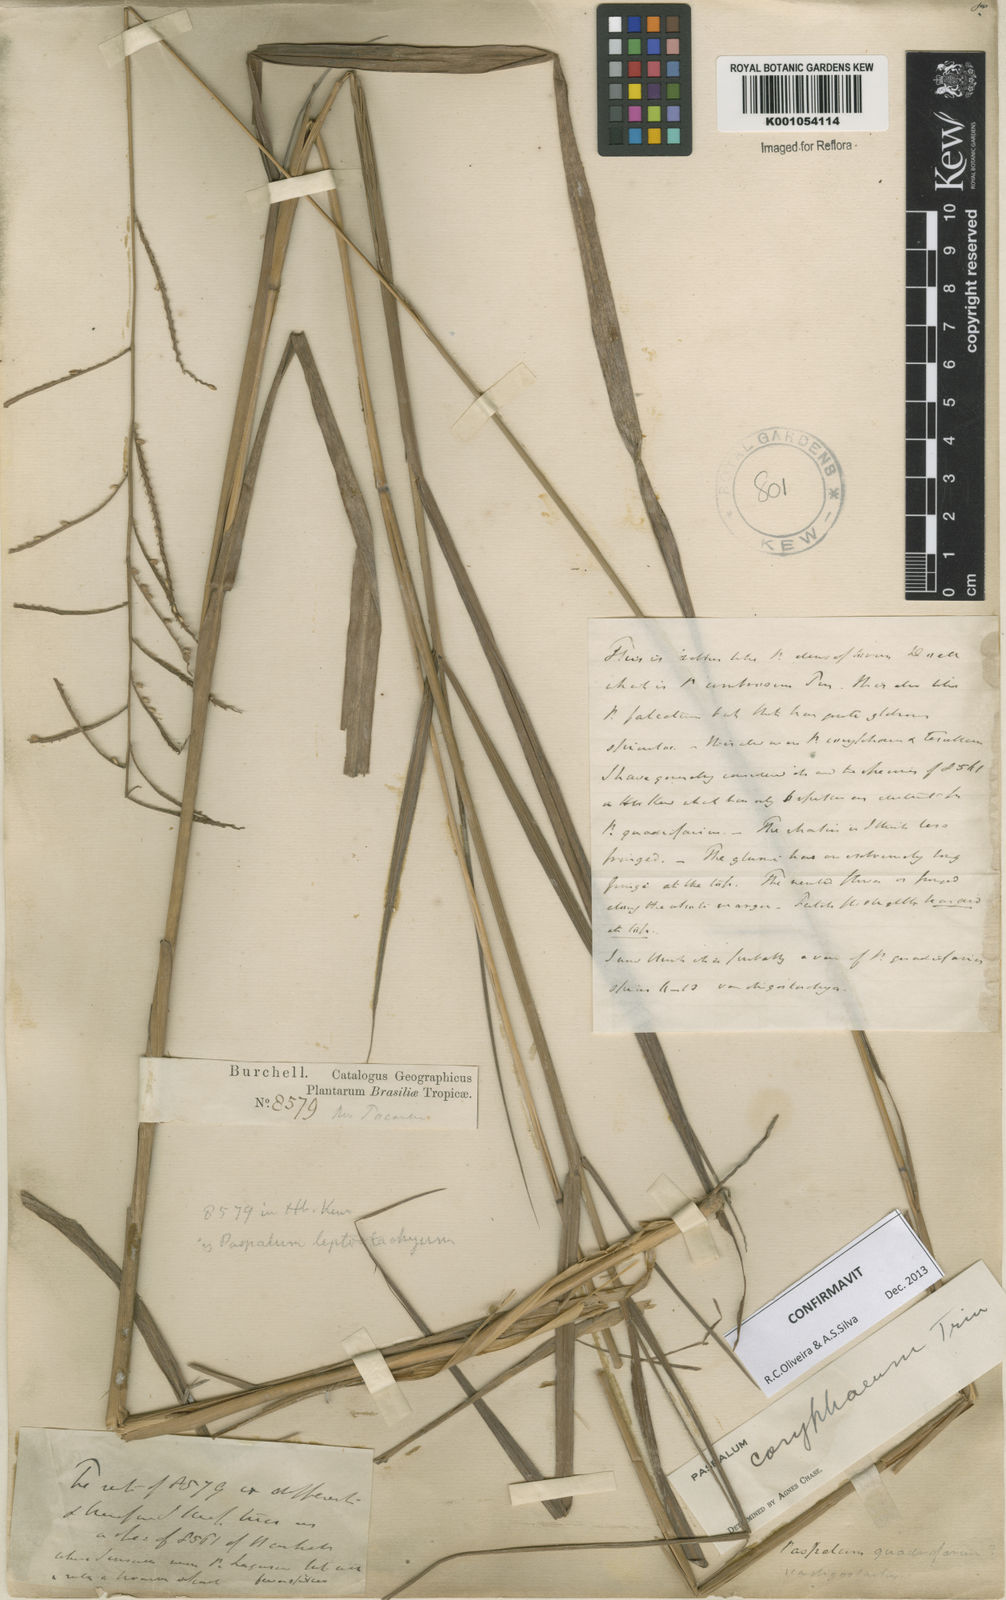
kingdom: Plantae
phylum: Tracheophyta
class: Liliopsida
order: Poales
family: Poaceae
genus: Paspalum
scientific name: Paspalum coryphaeum
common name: Emperor crowngrass
